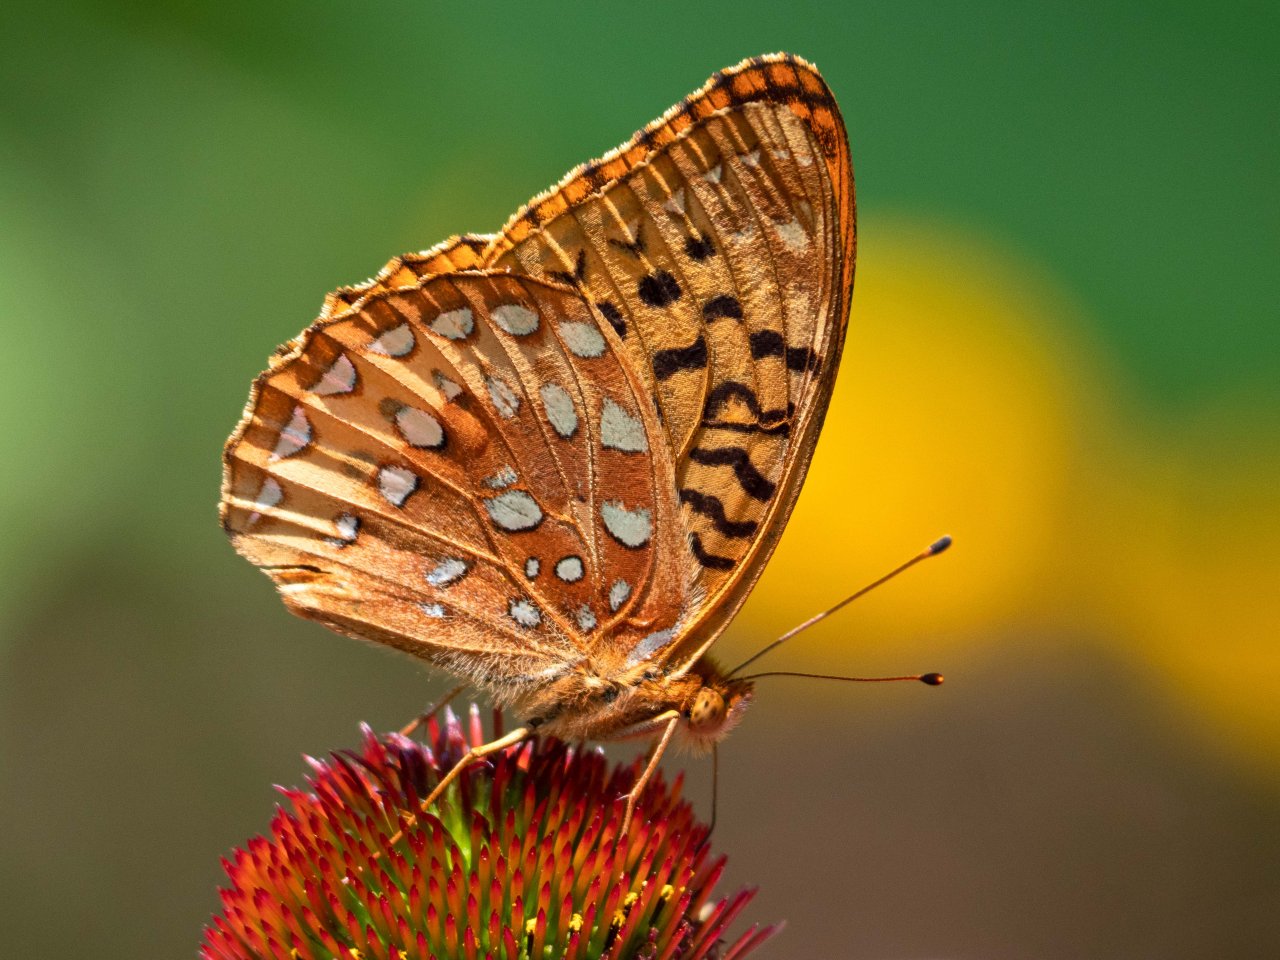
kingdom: Animalia
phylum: Arthropoda
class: Insecta
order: Lepidoptera
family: Nymphalidae
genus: Speyeria
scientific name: Speyeria cybele
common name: Great Spangled Fritillary
